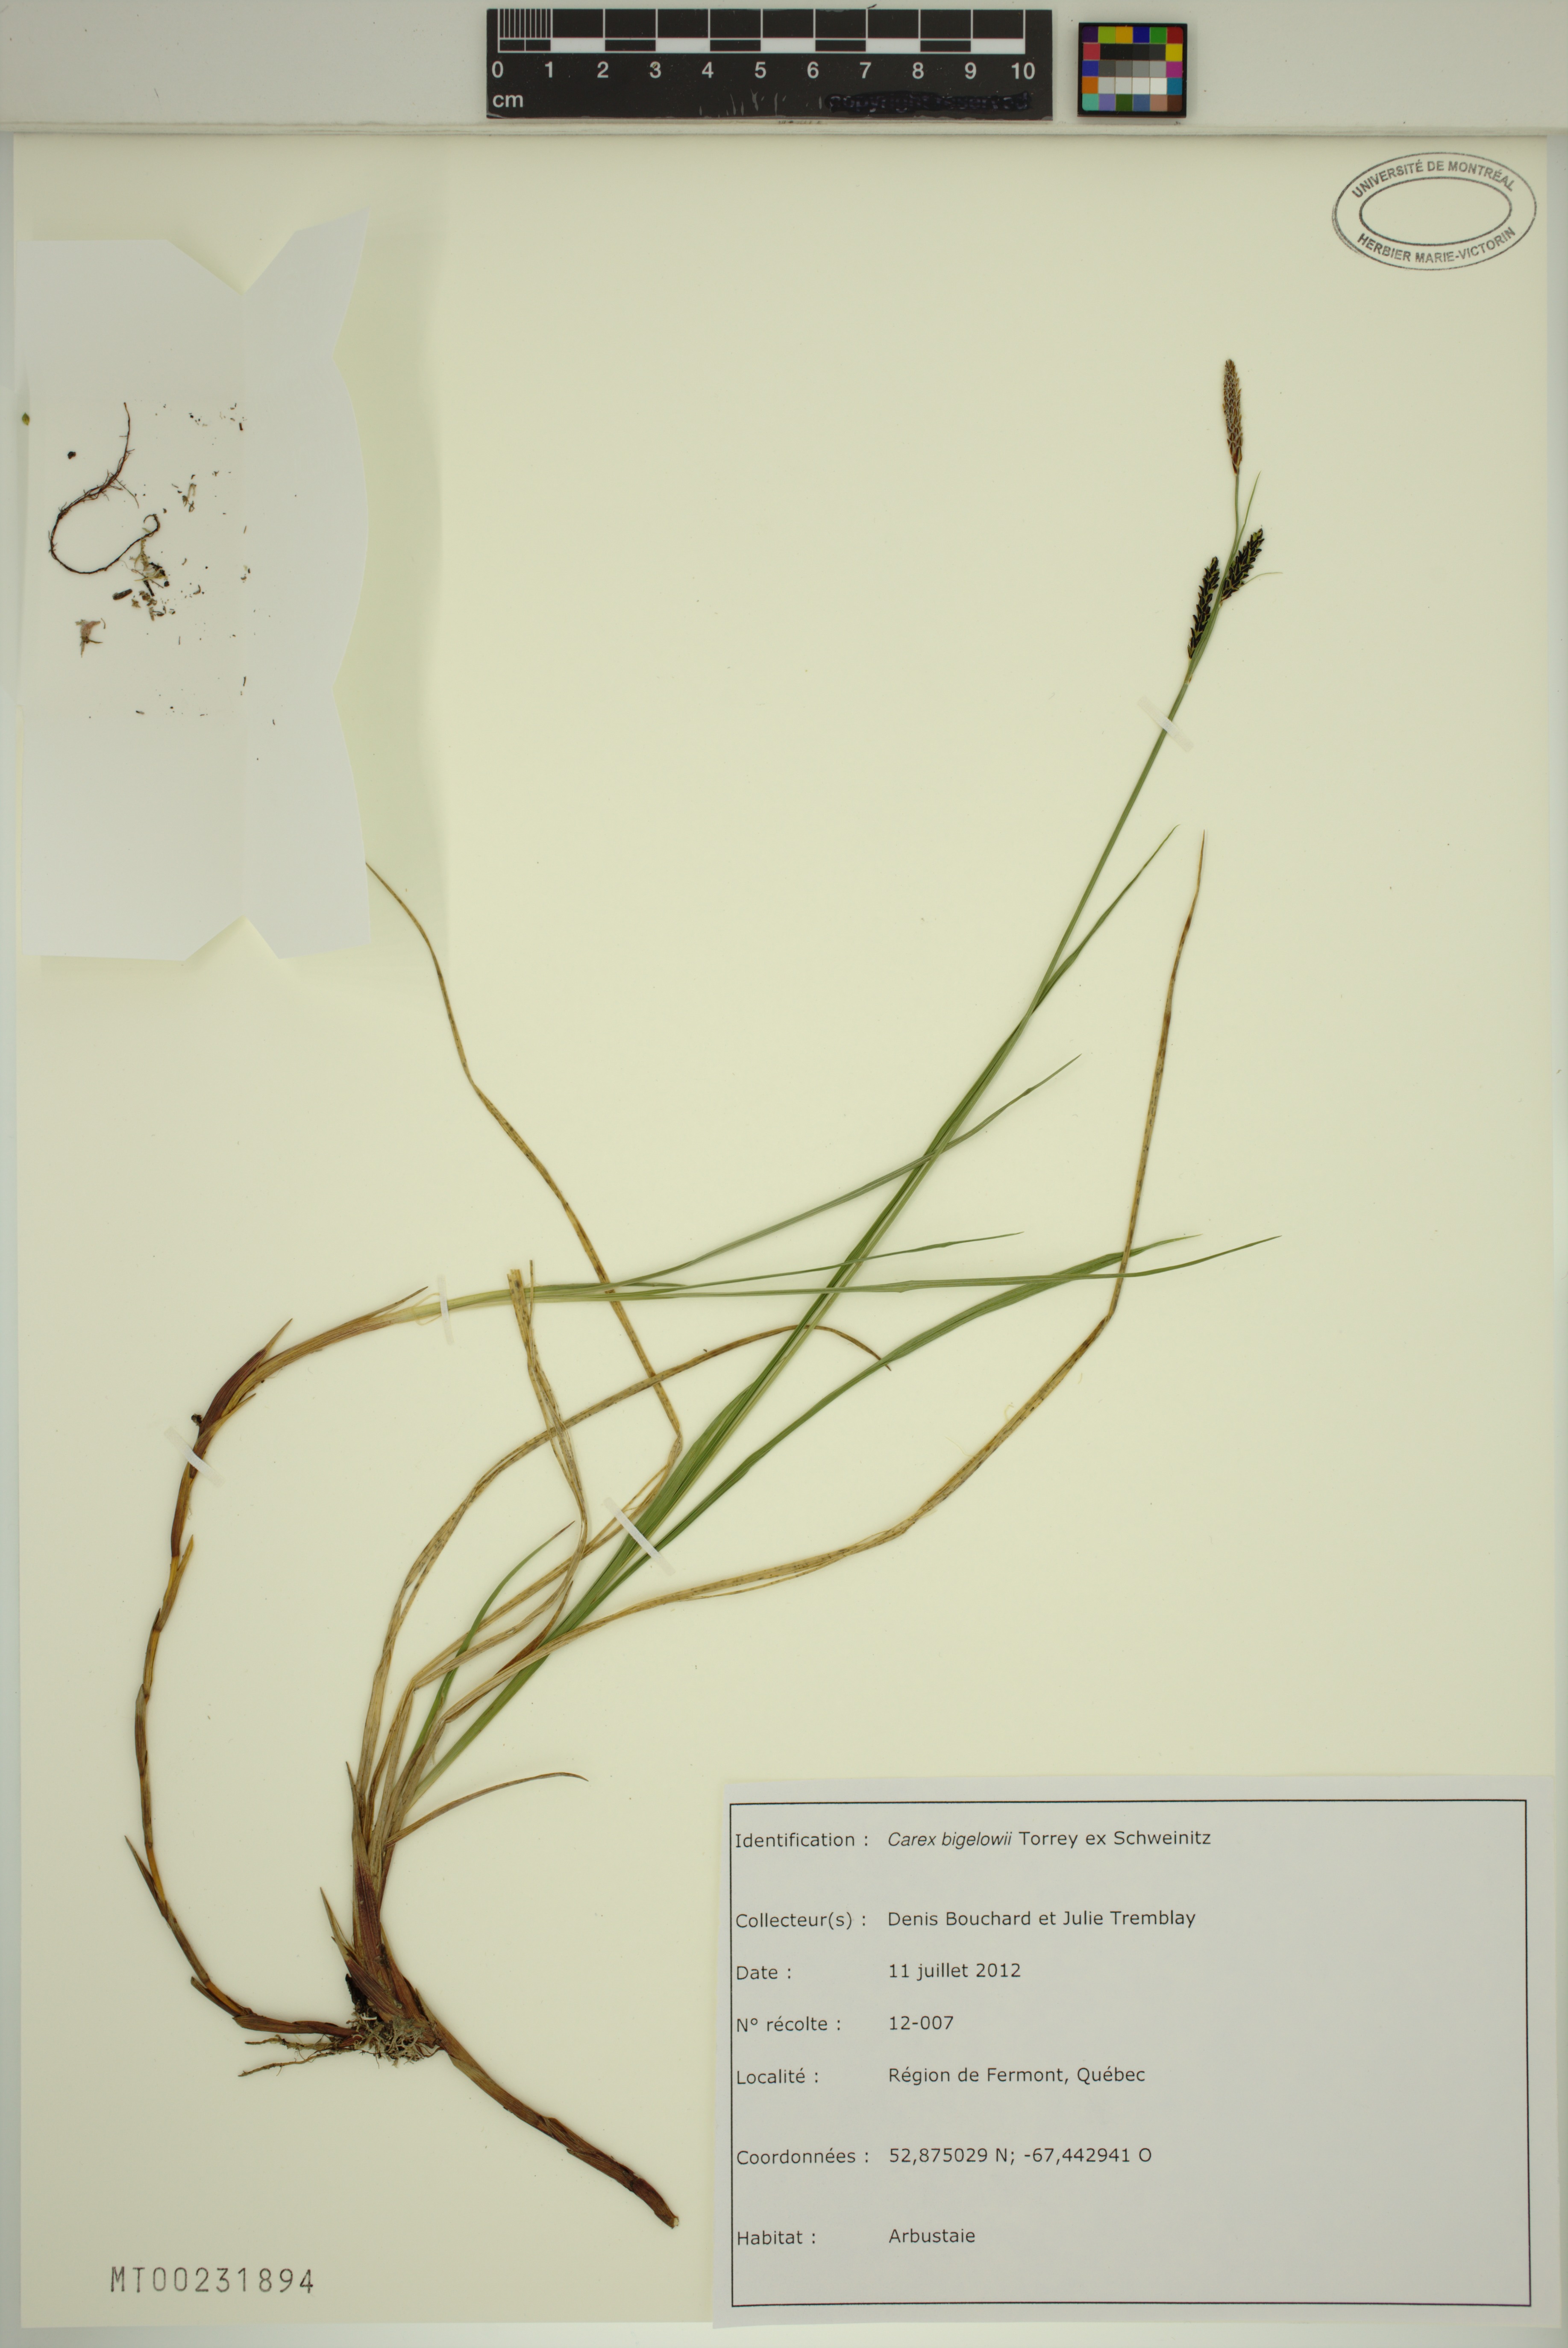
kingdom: Plantae
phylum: Tracheophyta
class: Liliopsida
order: Poales
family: Cyperaceae
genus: Carex
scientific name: Carex bigelowii
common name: Stiff sedge
